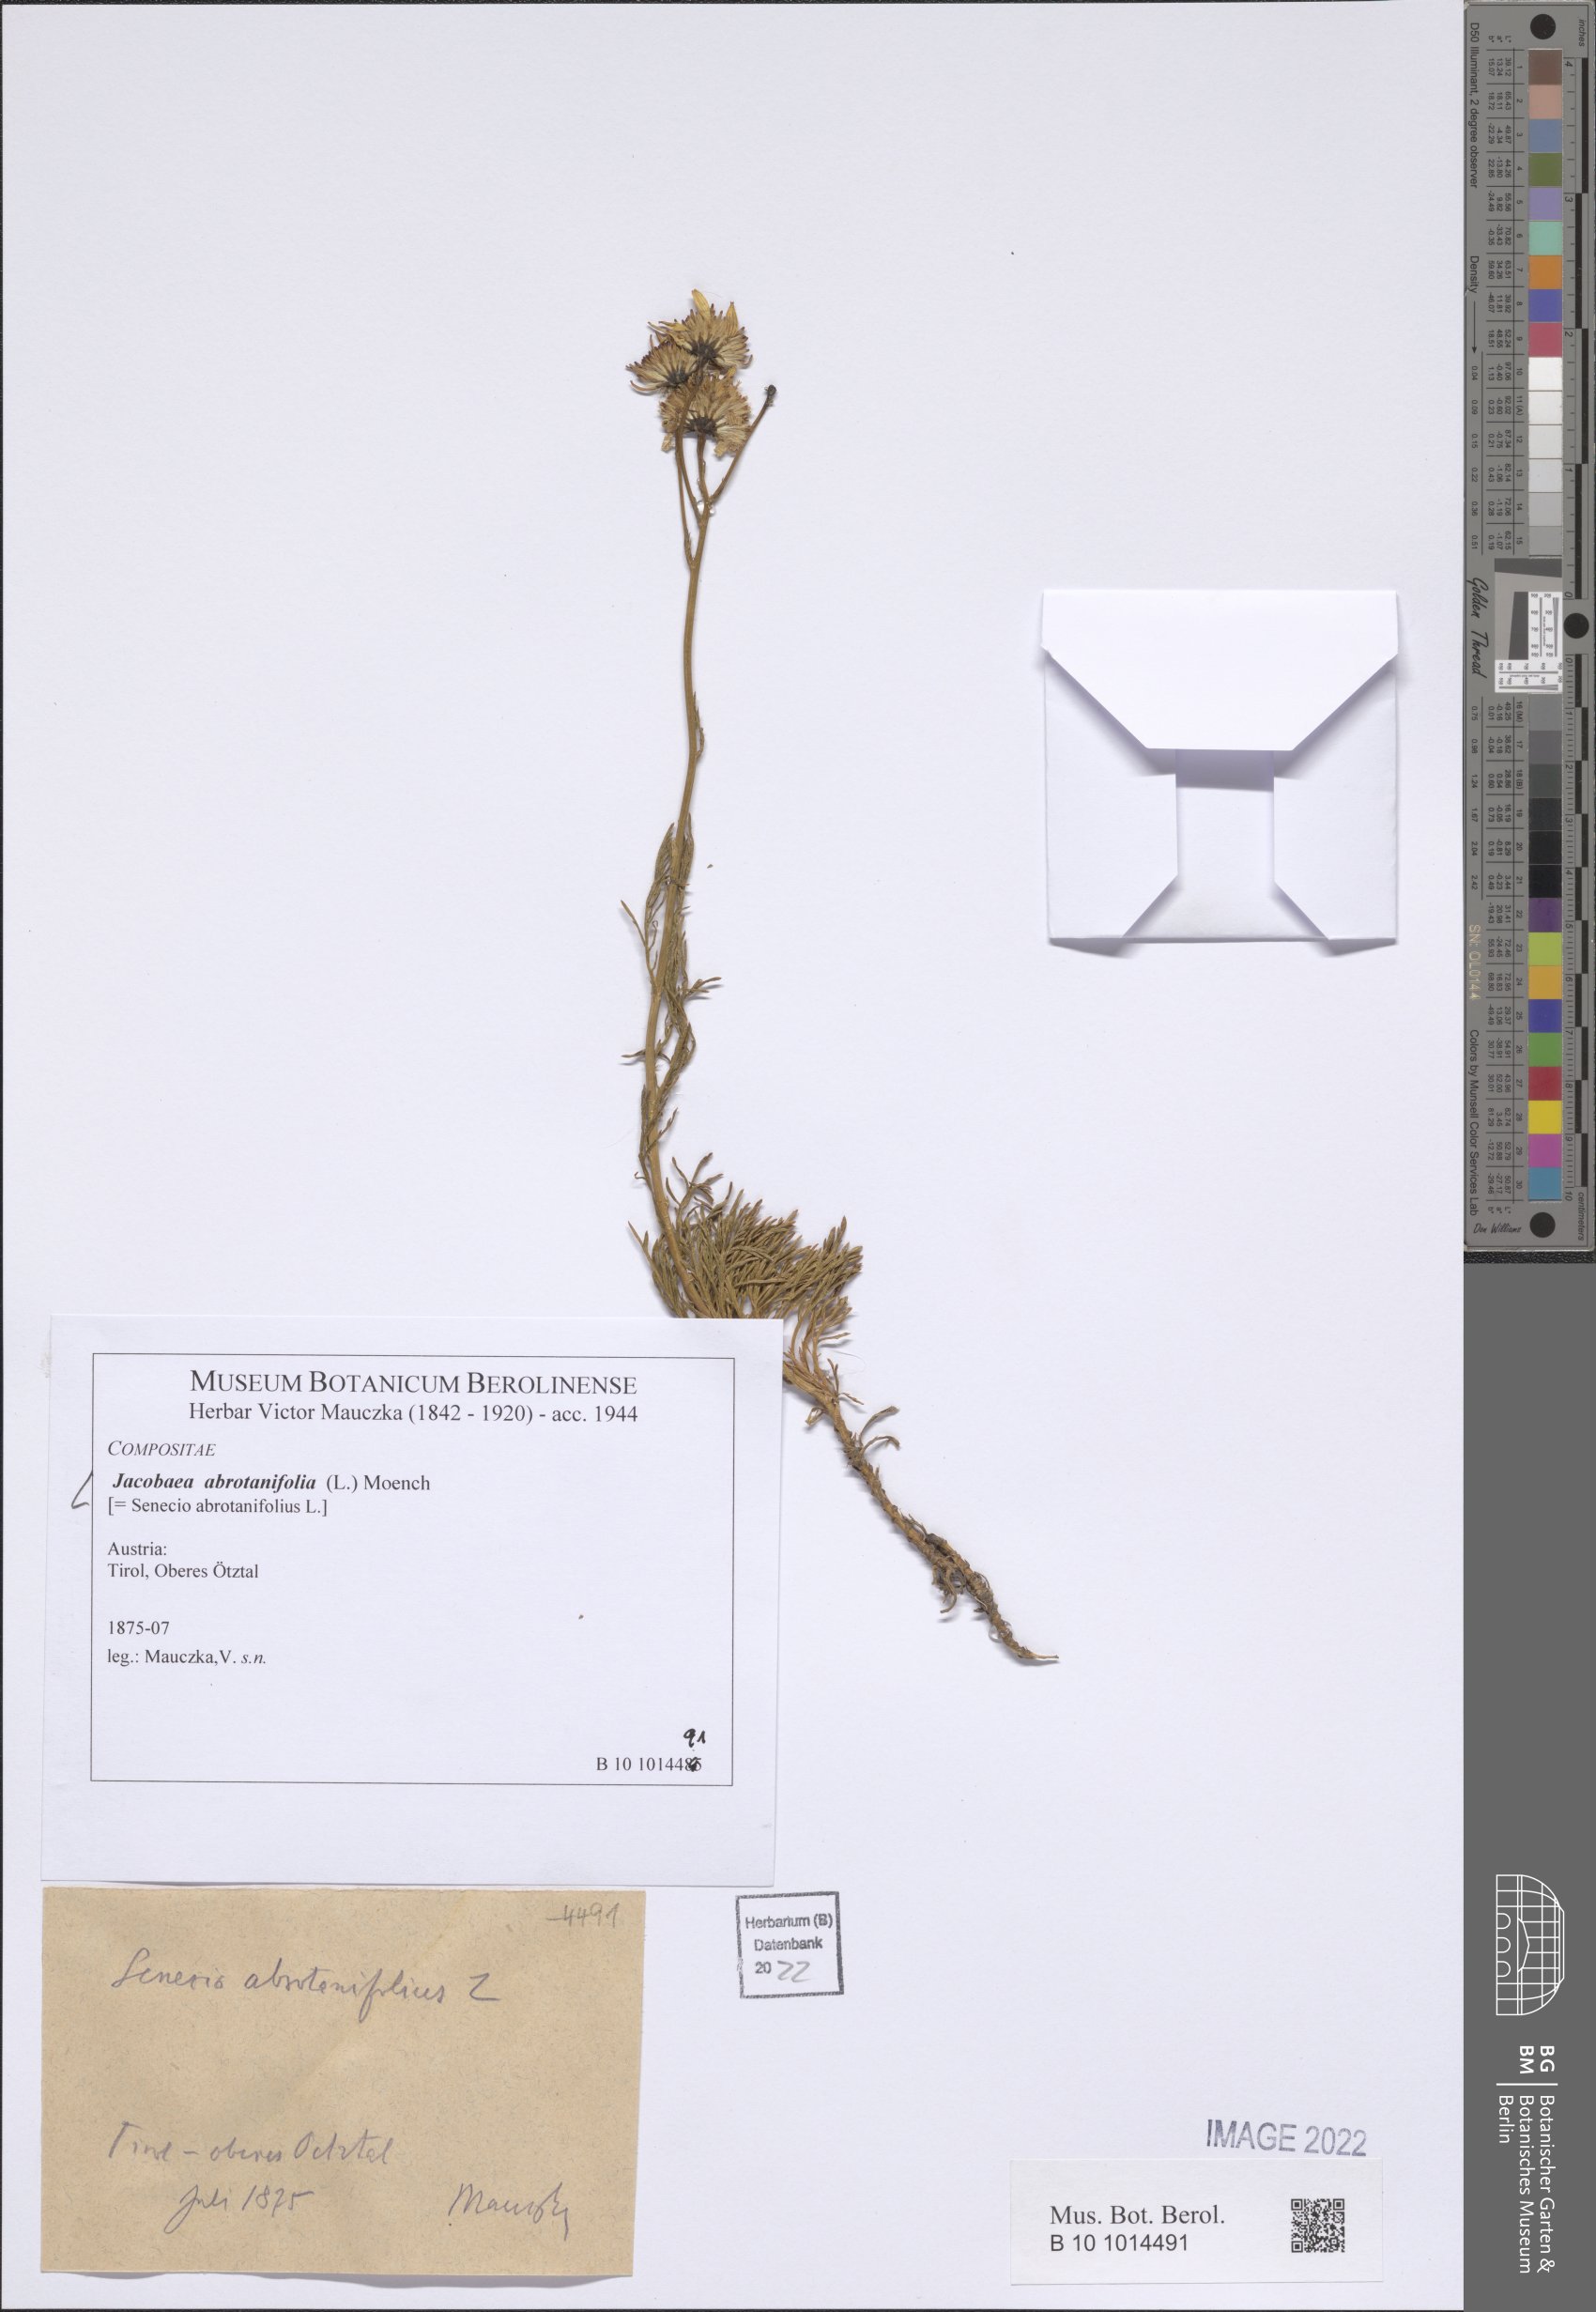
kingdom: Plantae
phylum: Tracheophyta
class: Magnoliopsida
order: Asterales
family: Asteraceae
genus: Jacobaea
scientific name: Jacobaea abrotanifolia
